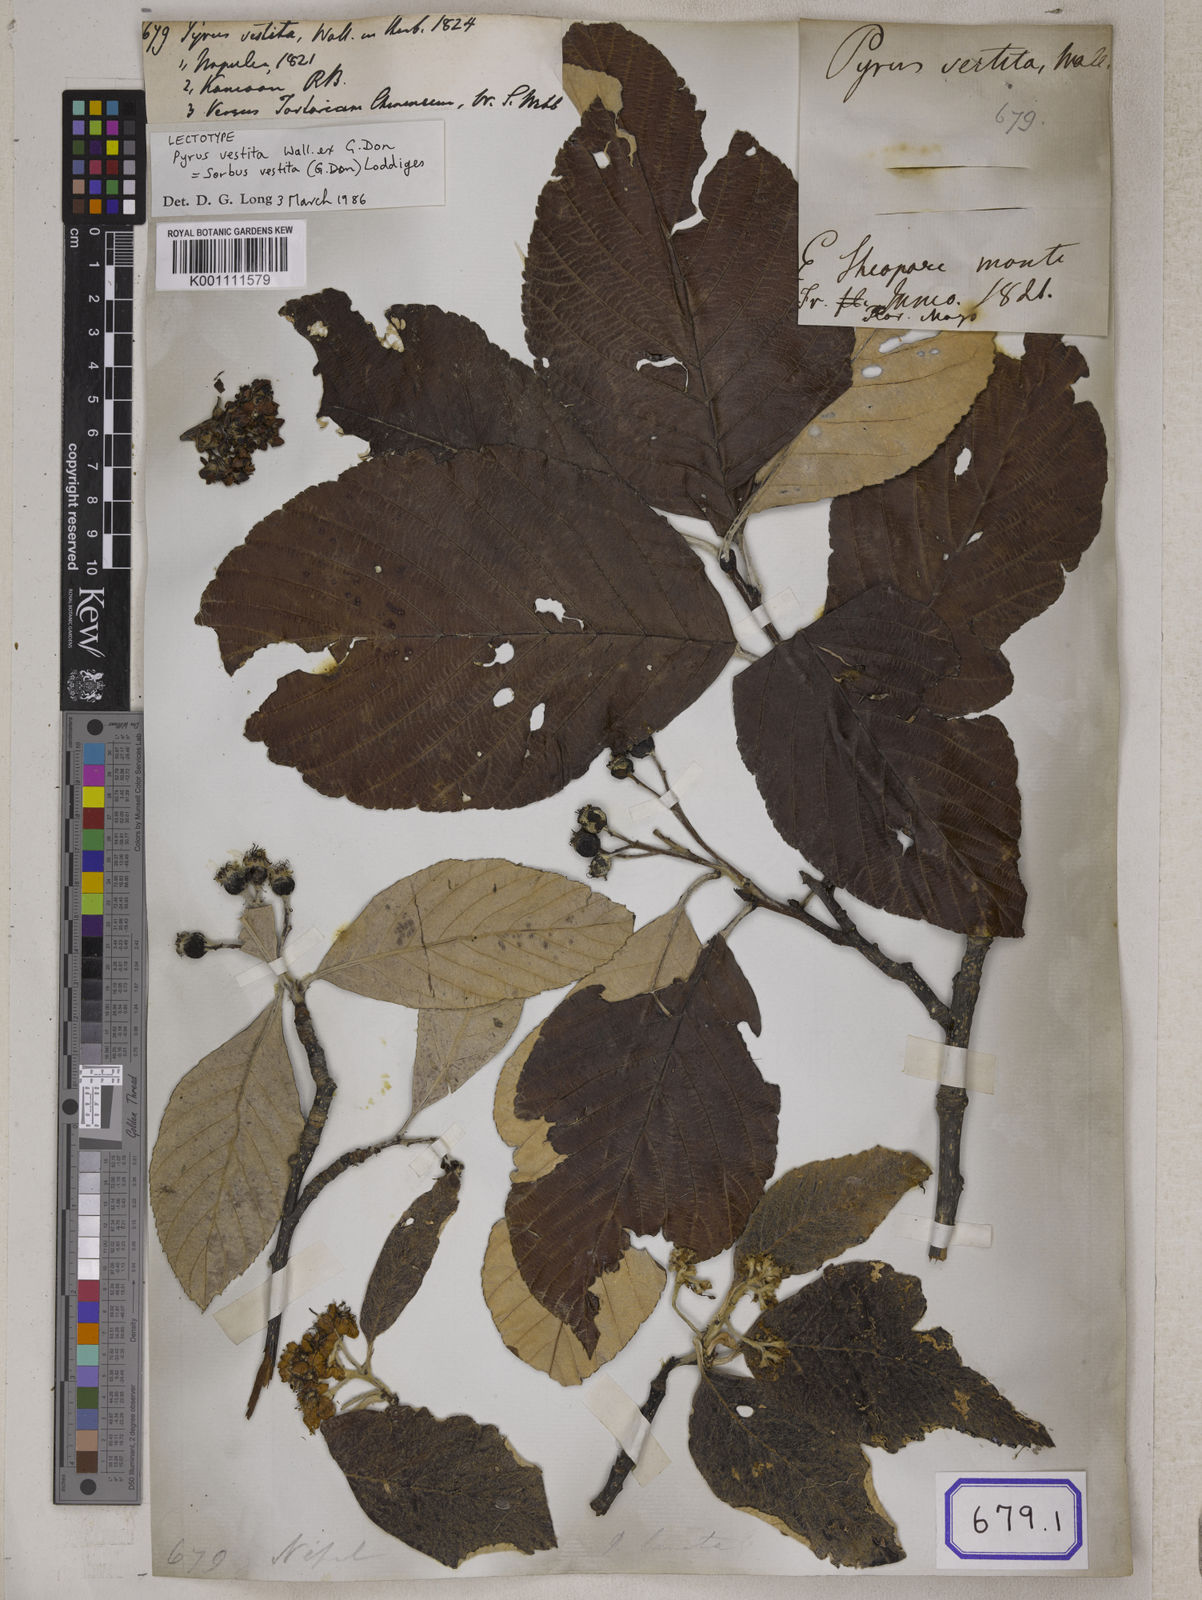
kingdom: Plantae
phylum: Tracheophyta
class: Magnoliopsida
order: Rosales
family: Rosaceae
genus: Pyrus
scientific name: Pyrus
